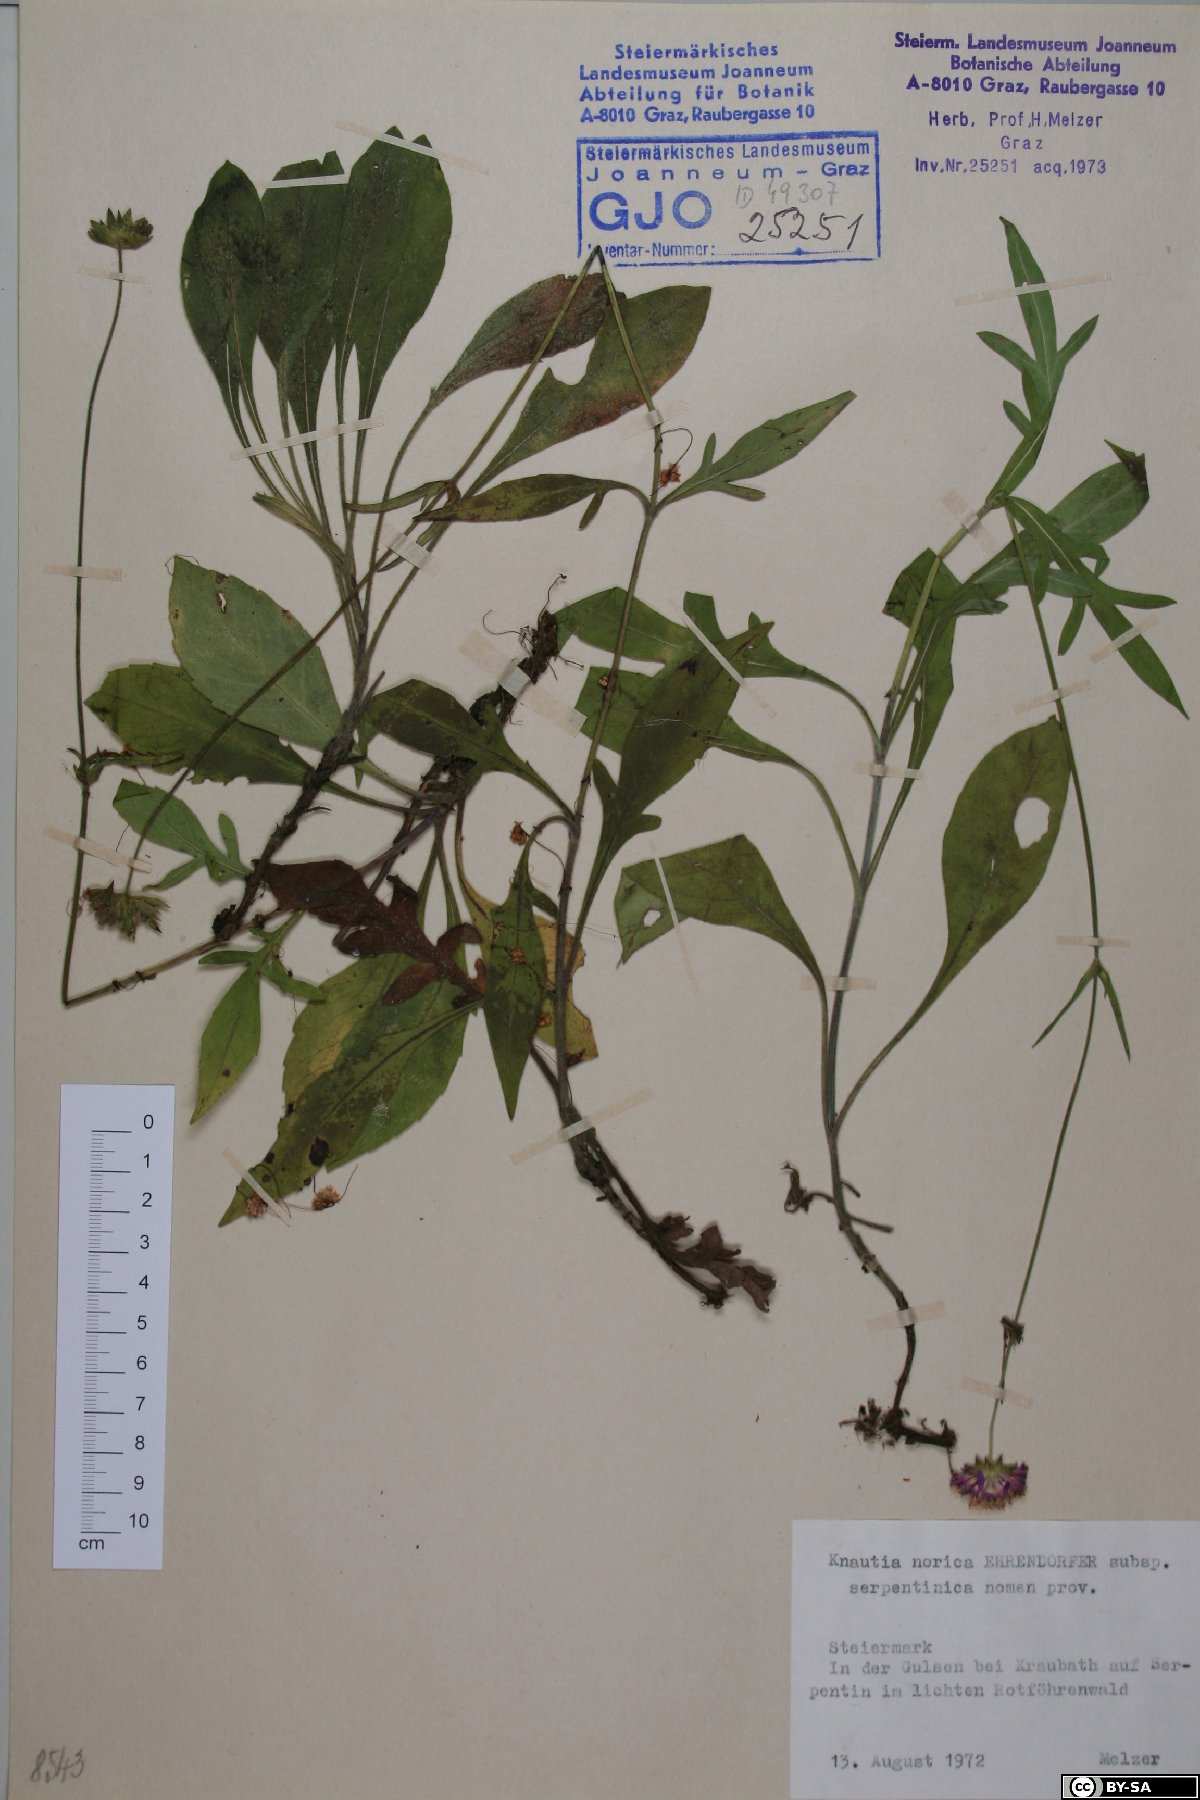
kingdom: Plantae
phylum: Tracheophyta
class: Magnoliopsida
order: Dipsacales
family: Caprifoliaceae
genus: Knautia
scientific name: Knautia norica
